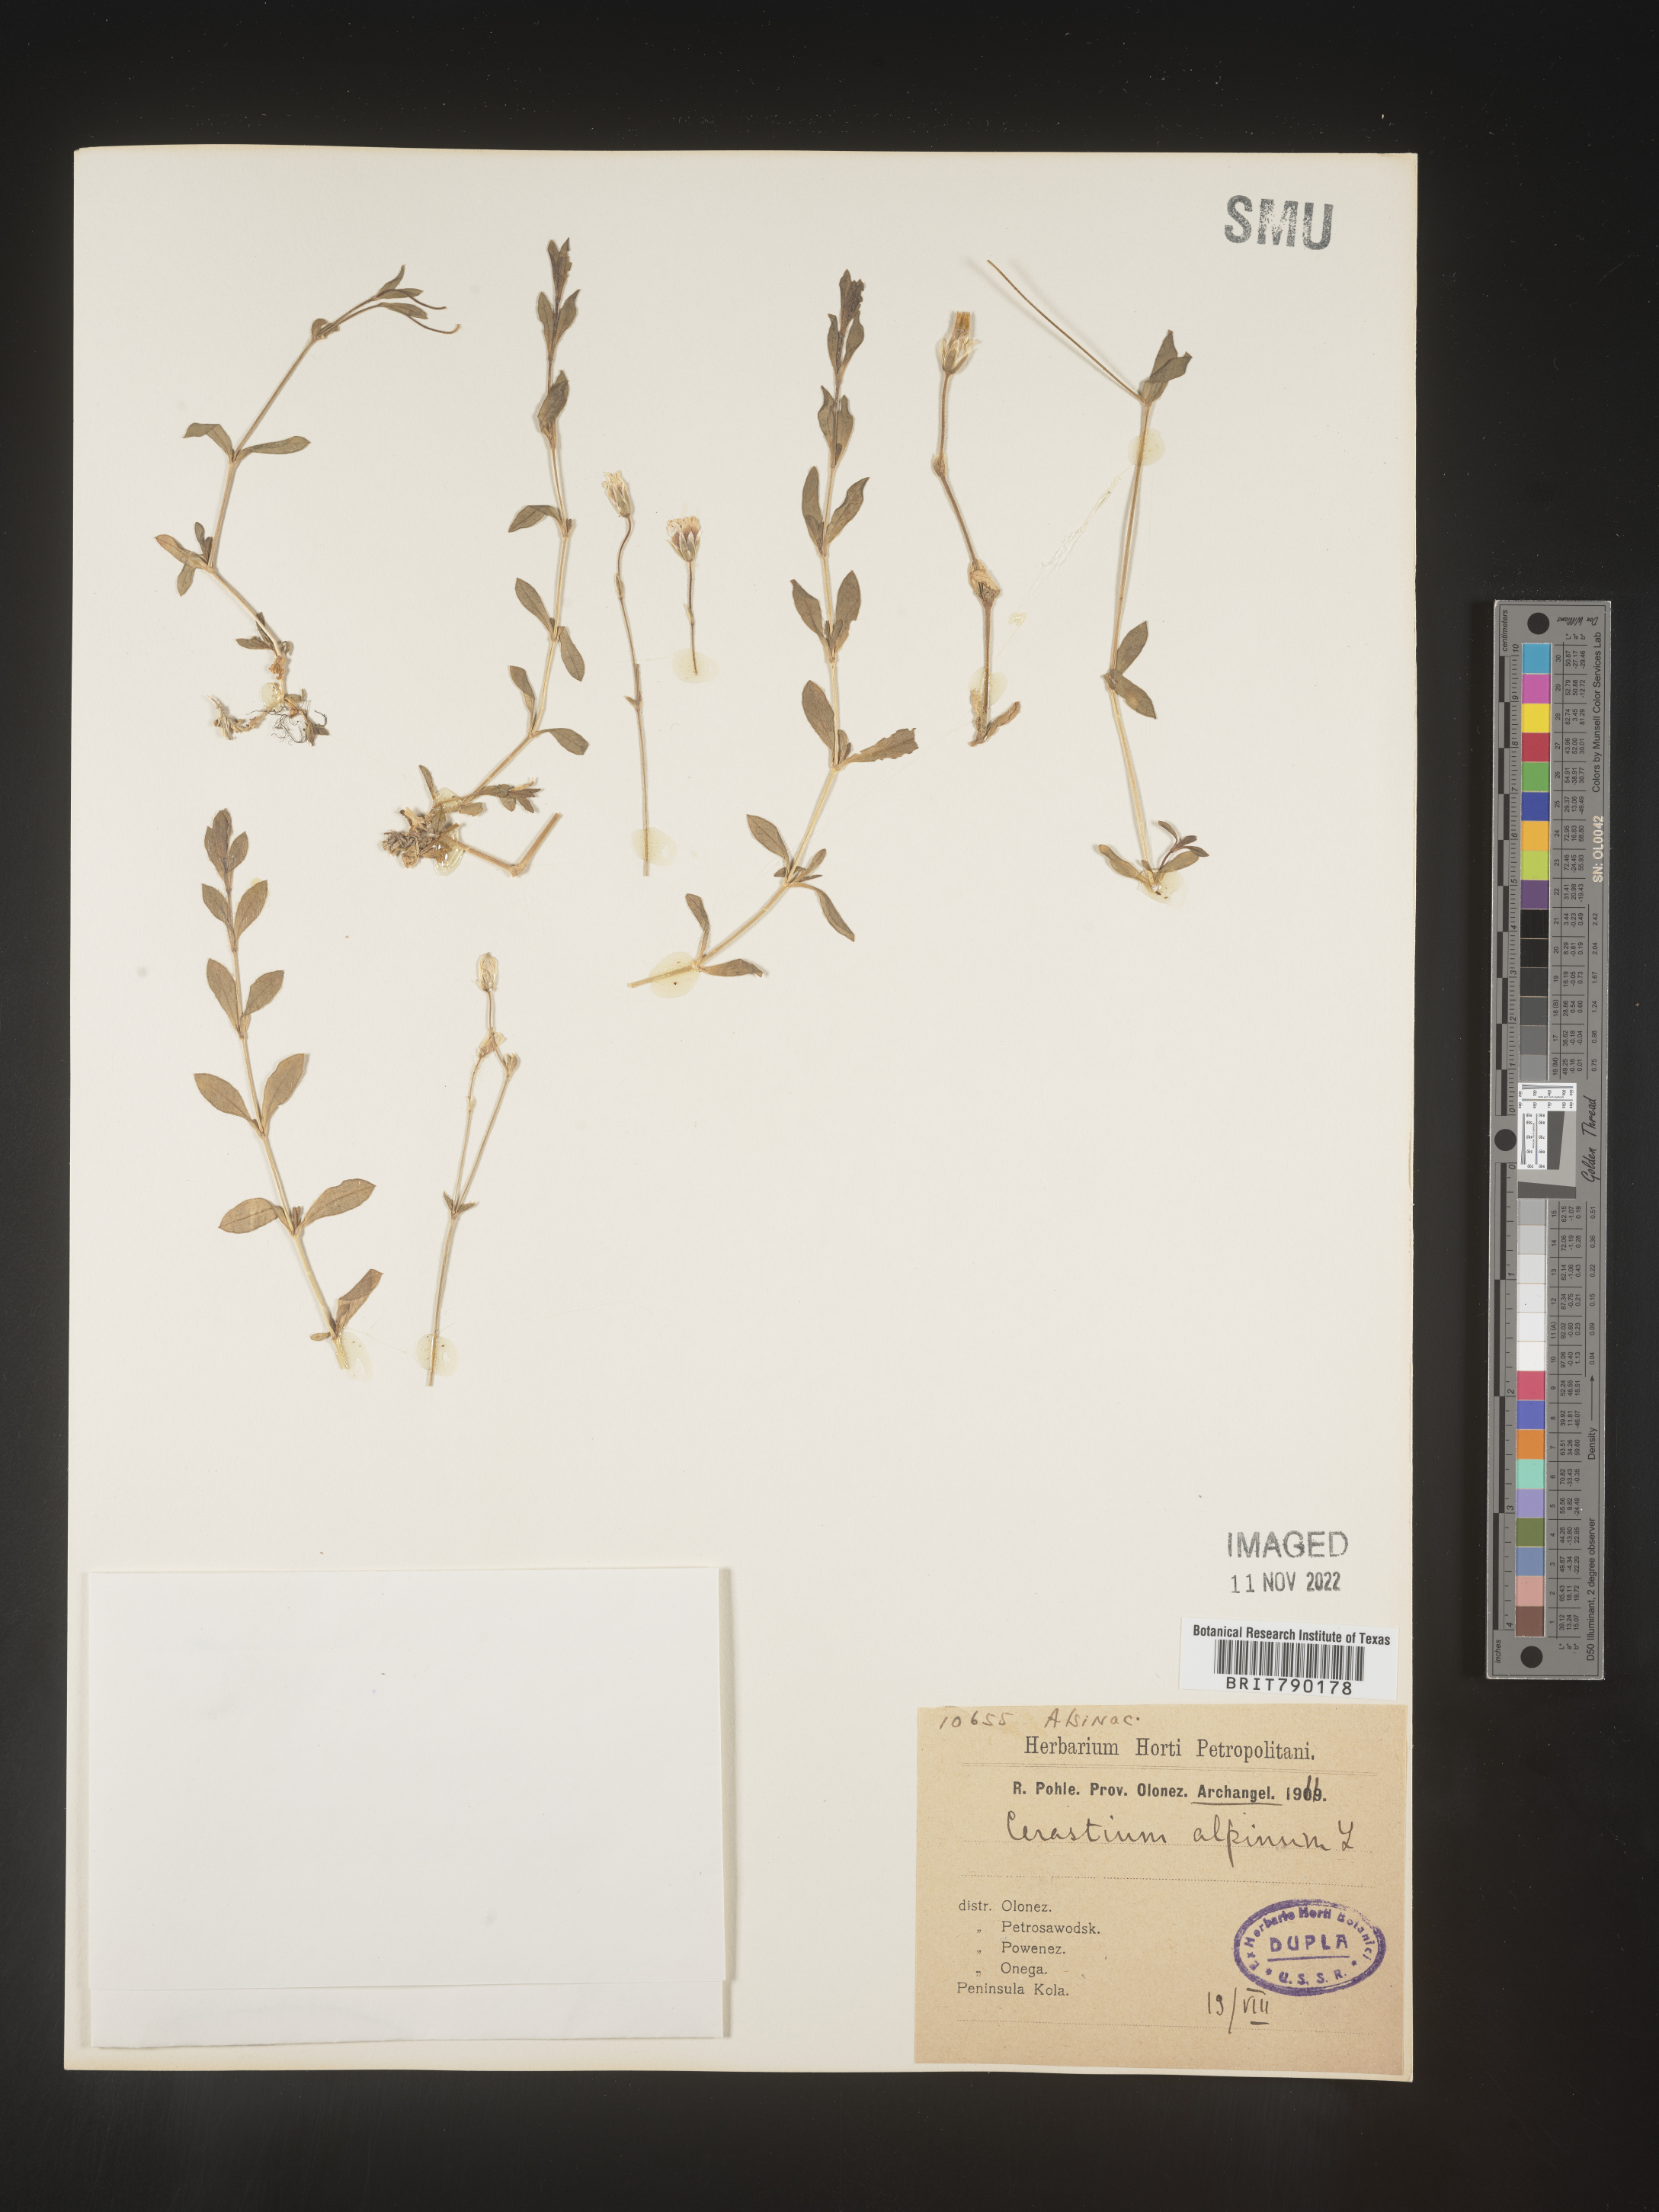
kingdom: Plantae
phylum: Tracheophyta
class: Magnoliopsida
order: Caryophyllales
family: Caryophyllaceae
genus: Cerastium
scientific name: Cerastium
